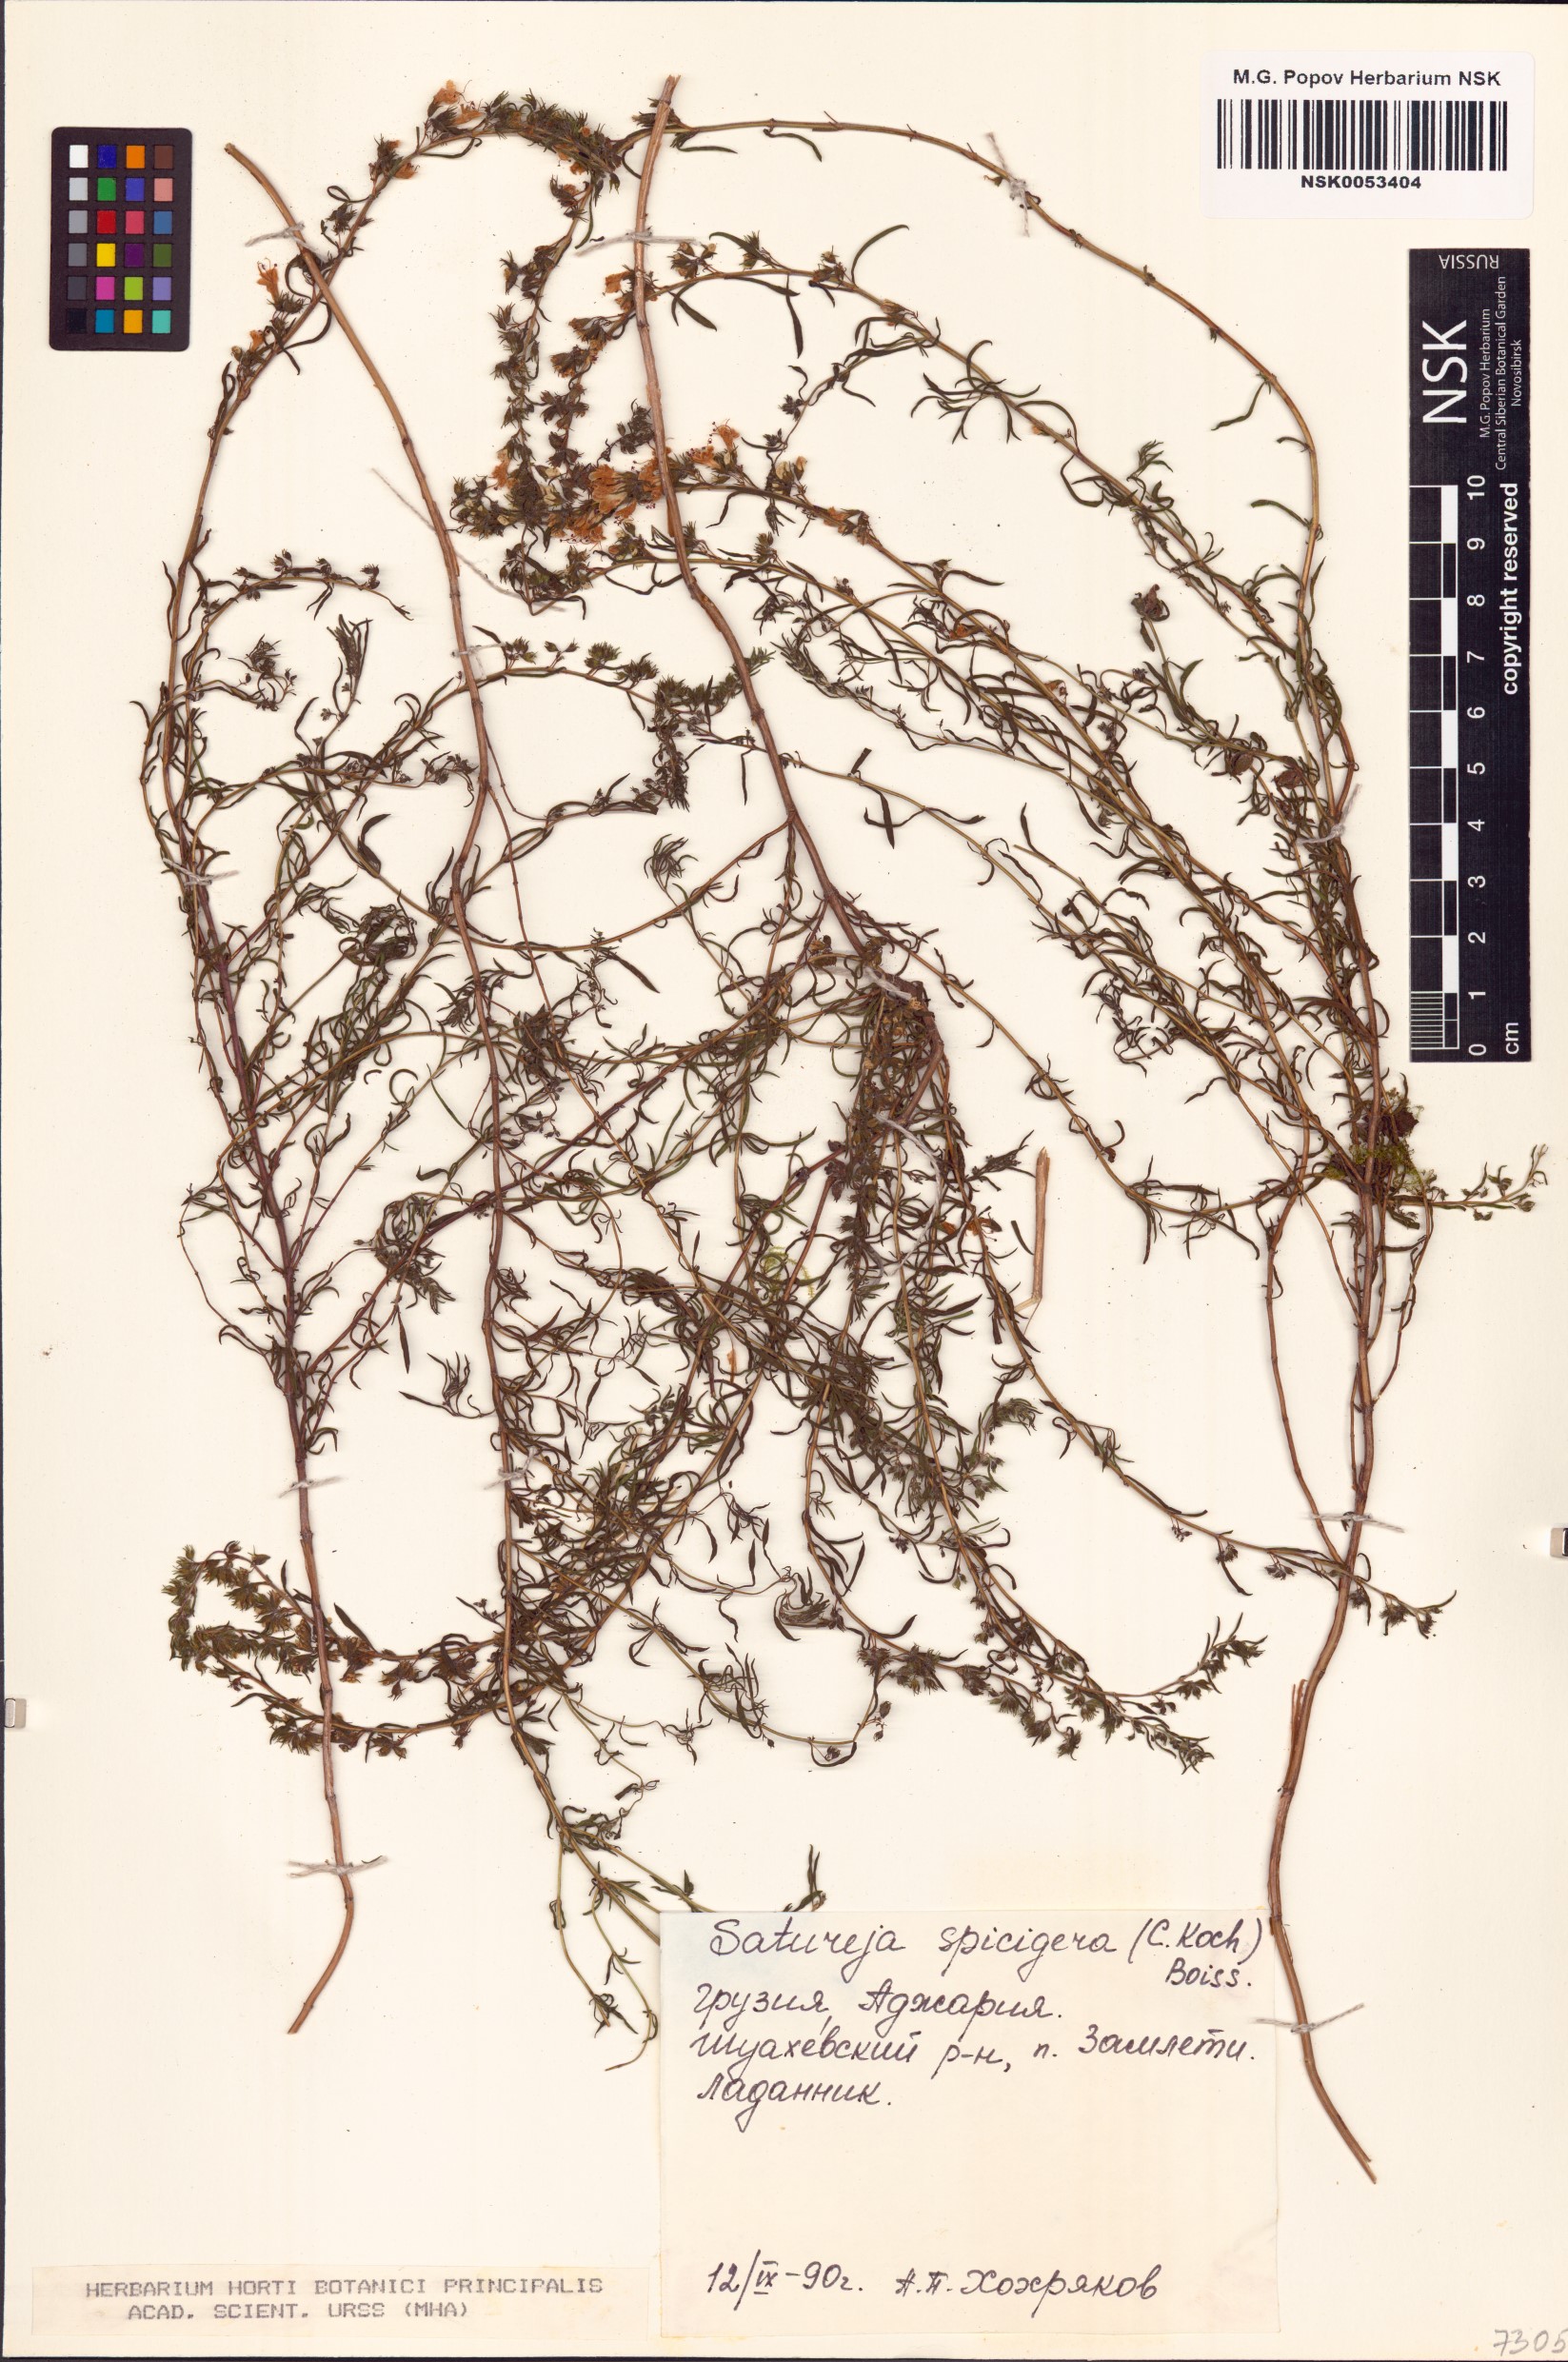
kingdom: Plantae
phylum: Tracheophyta
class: Magnoliopsida
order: Lamiales
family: Lamiaceae
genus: Satureja
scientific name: Satureja spicigera
